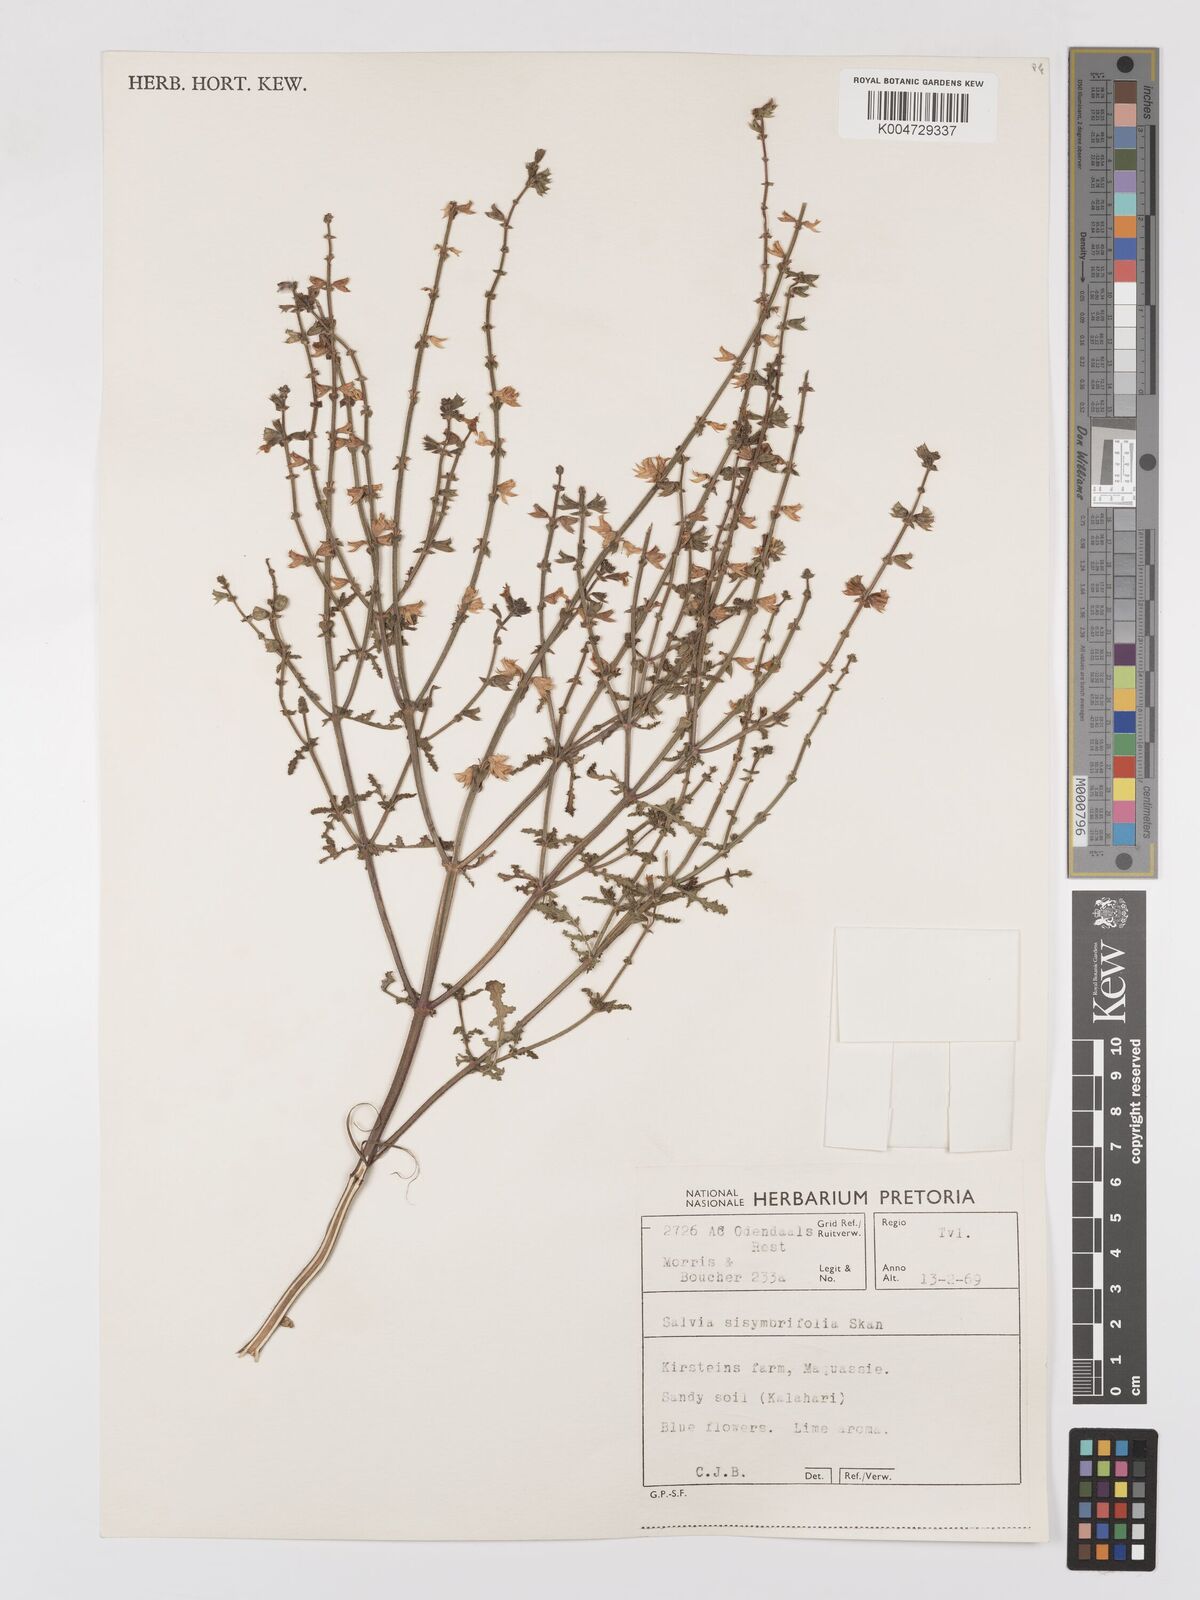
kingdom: Plantae
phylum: Tracheophyta
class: Magnoliopsida
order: Lamiales
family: Lamiaceae
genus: Salvia
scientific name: Salvia runcinata
